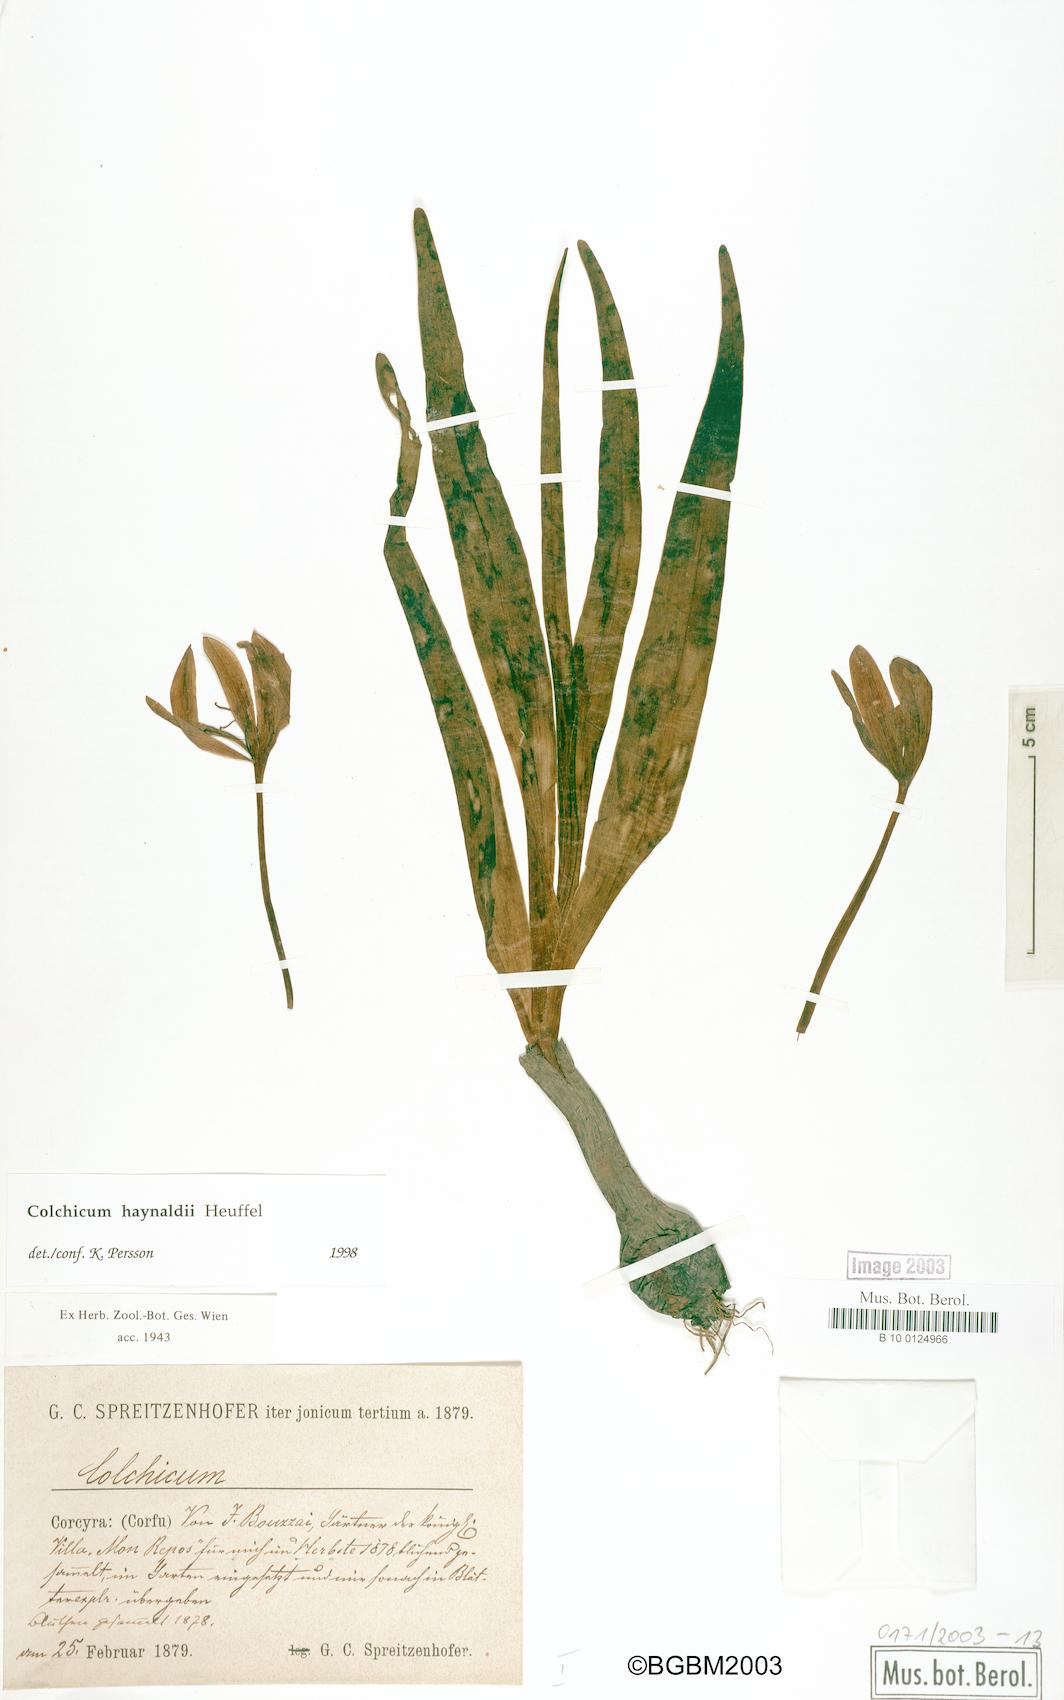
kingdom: Plantae
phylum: Tracheophyta
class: Liliopsida
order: Liliales
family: Colchicaceae
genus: Colchicum
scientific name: Colchicum haynaldii
